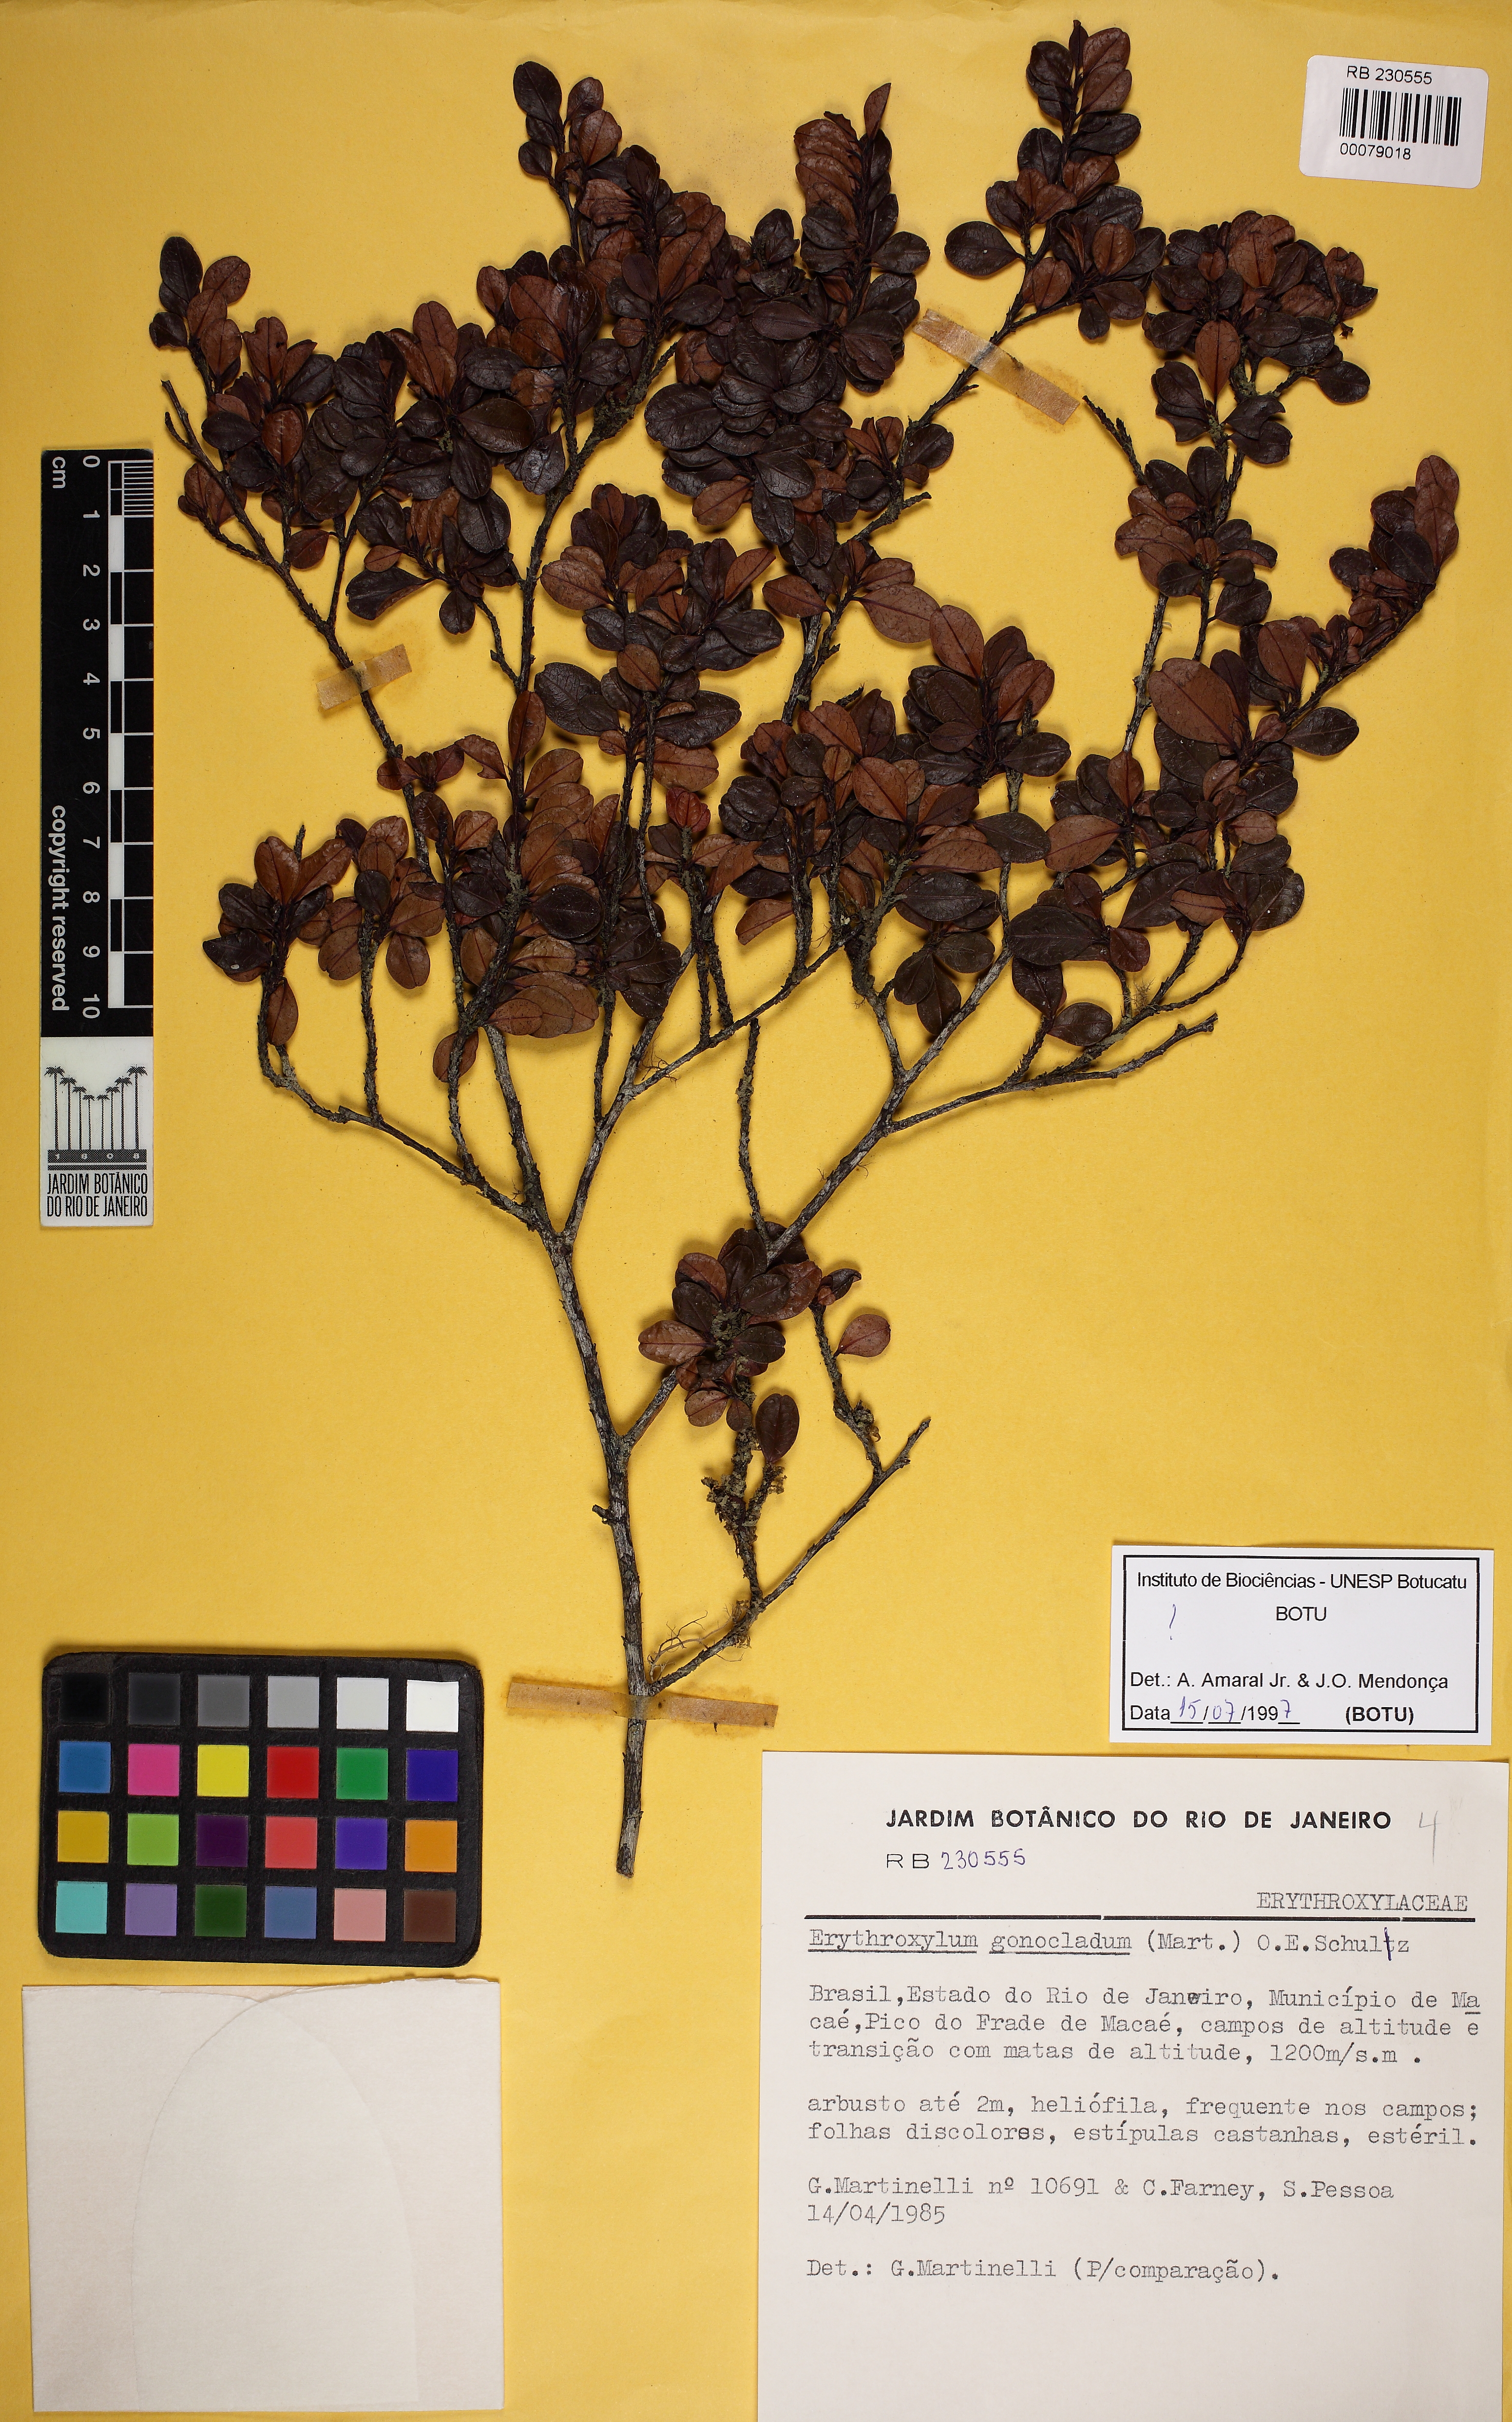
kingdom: Plantae
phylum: Tracheophyta
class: Magnoliopsida
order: Malpighiales
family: Erythroxylaceae
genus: Erythroxylum
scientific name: Erythroxylum gonoclados
